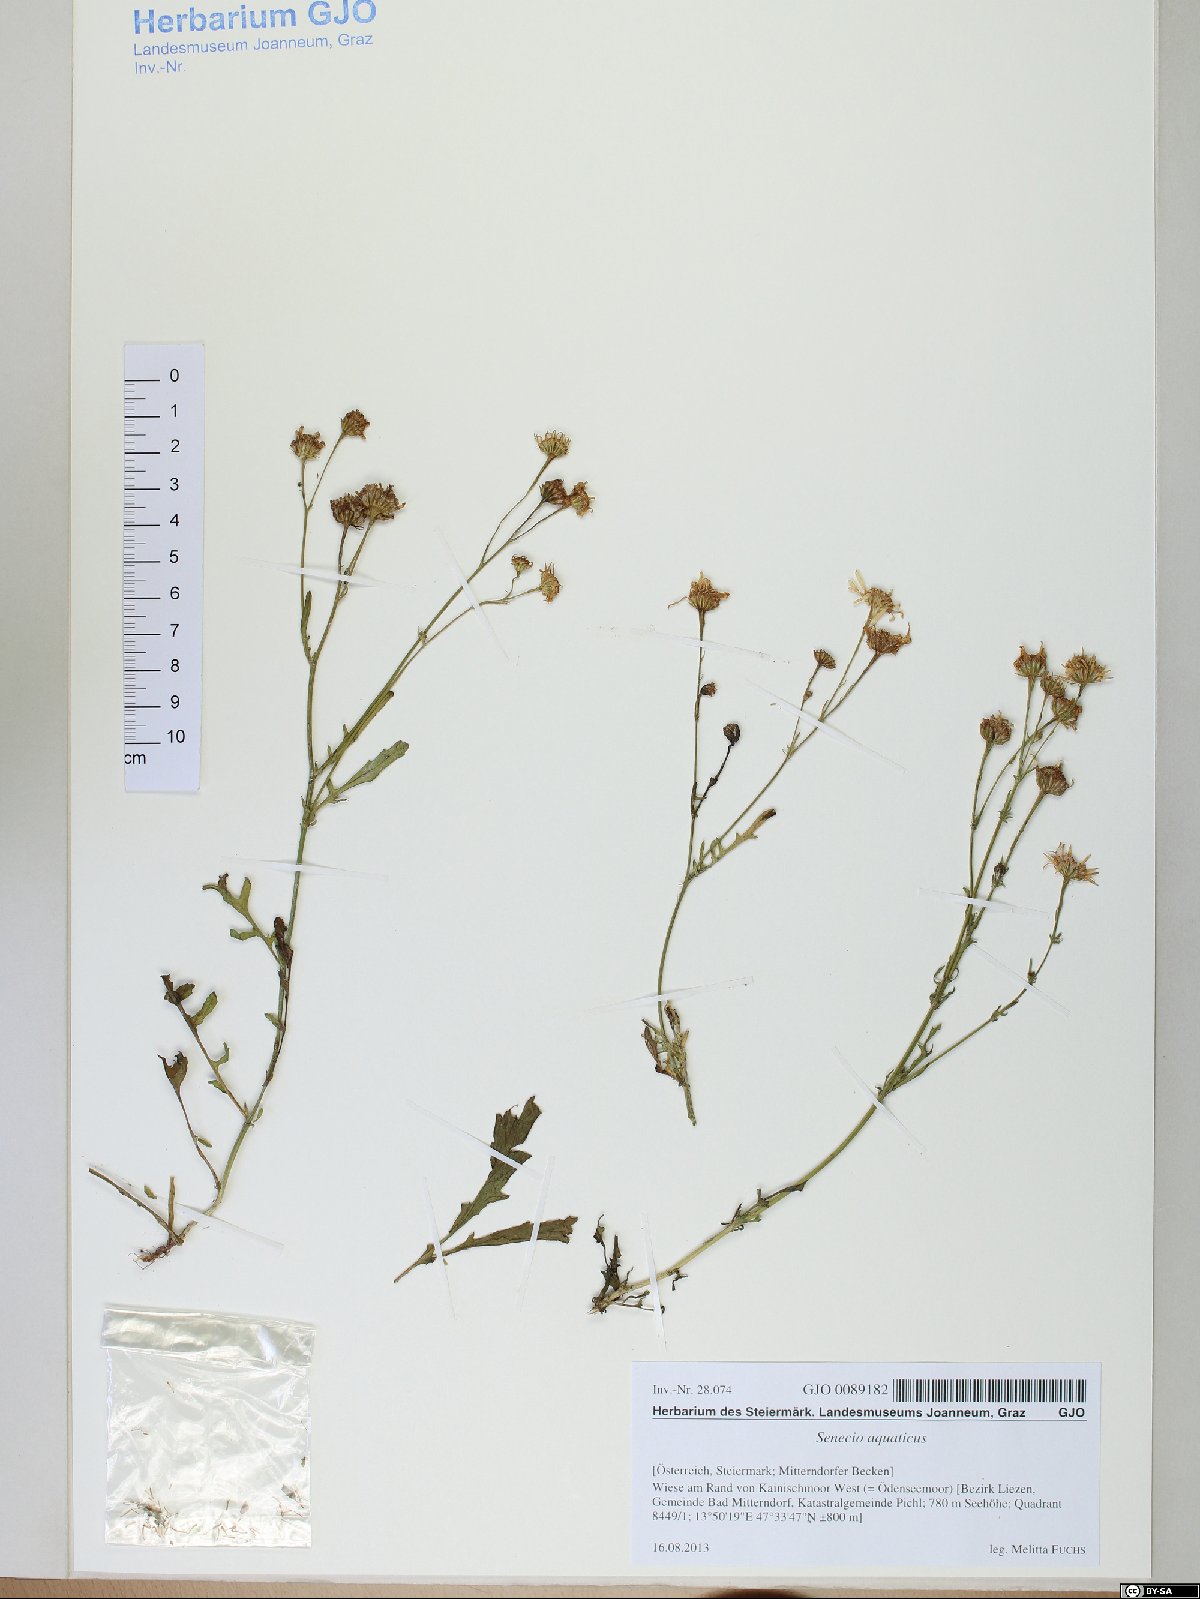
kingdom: Plantae
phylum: Tracheophyta
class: Magnoliopsida
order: Asterales
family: Asteraceae
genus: Jacobaea
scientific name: Jacobaea aquatica
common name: Water ragwort
